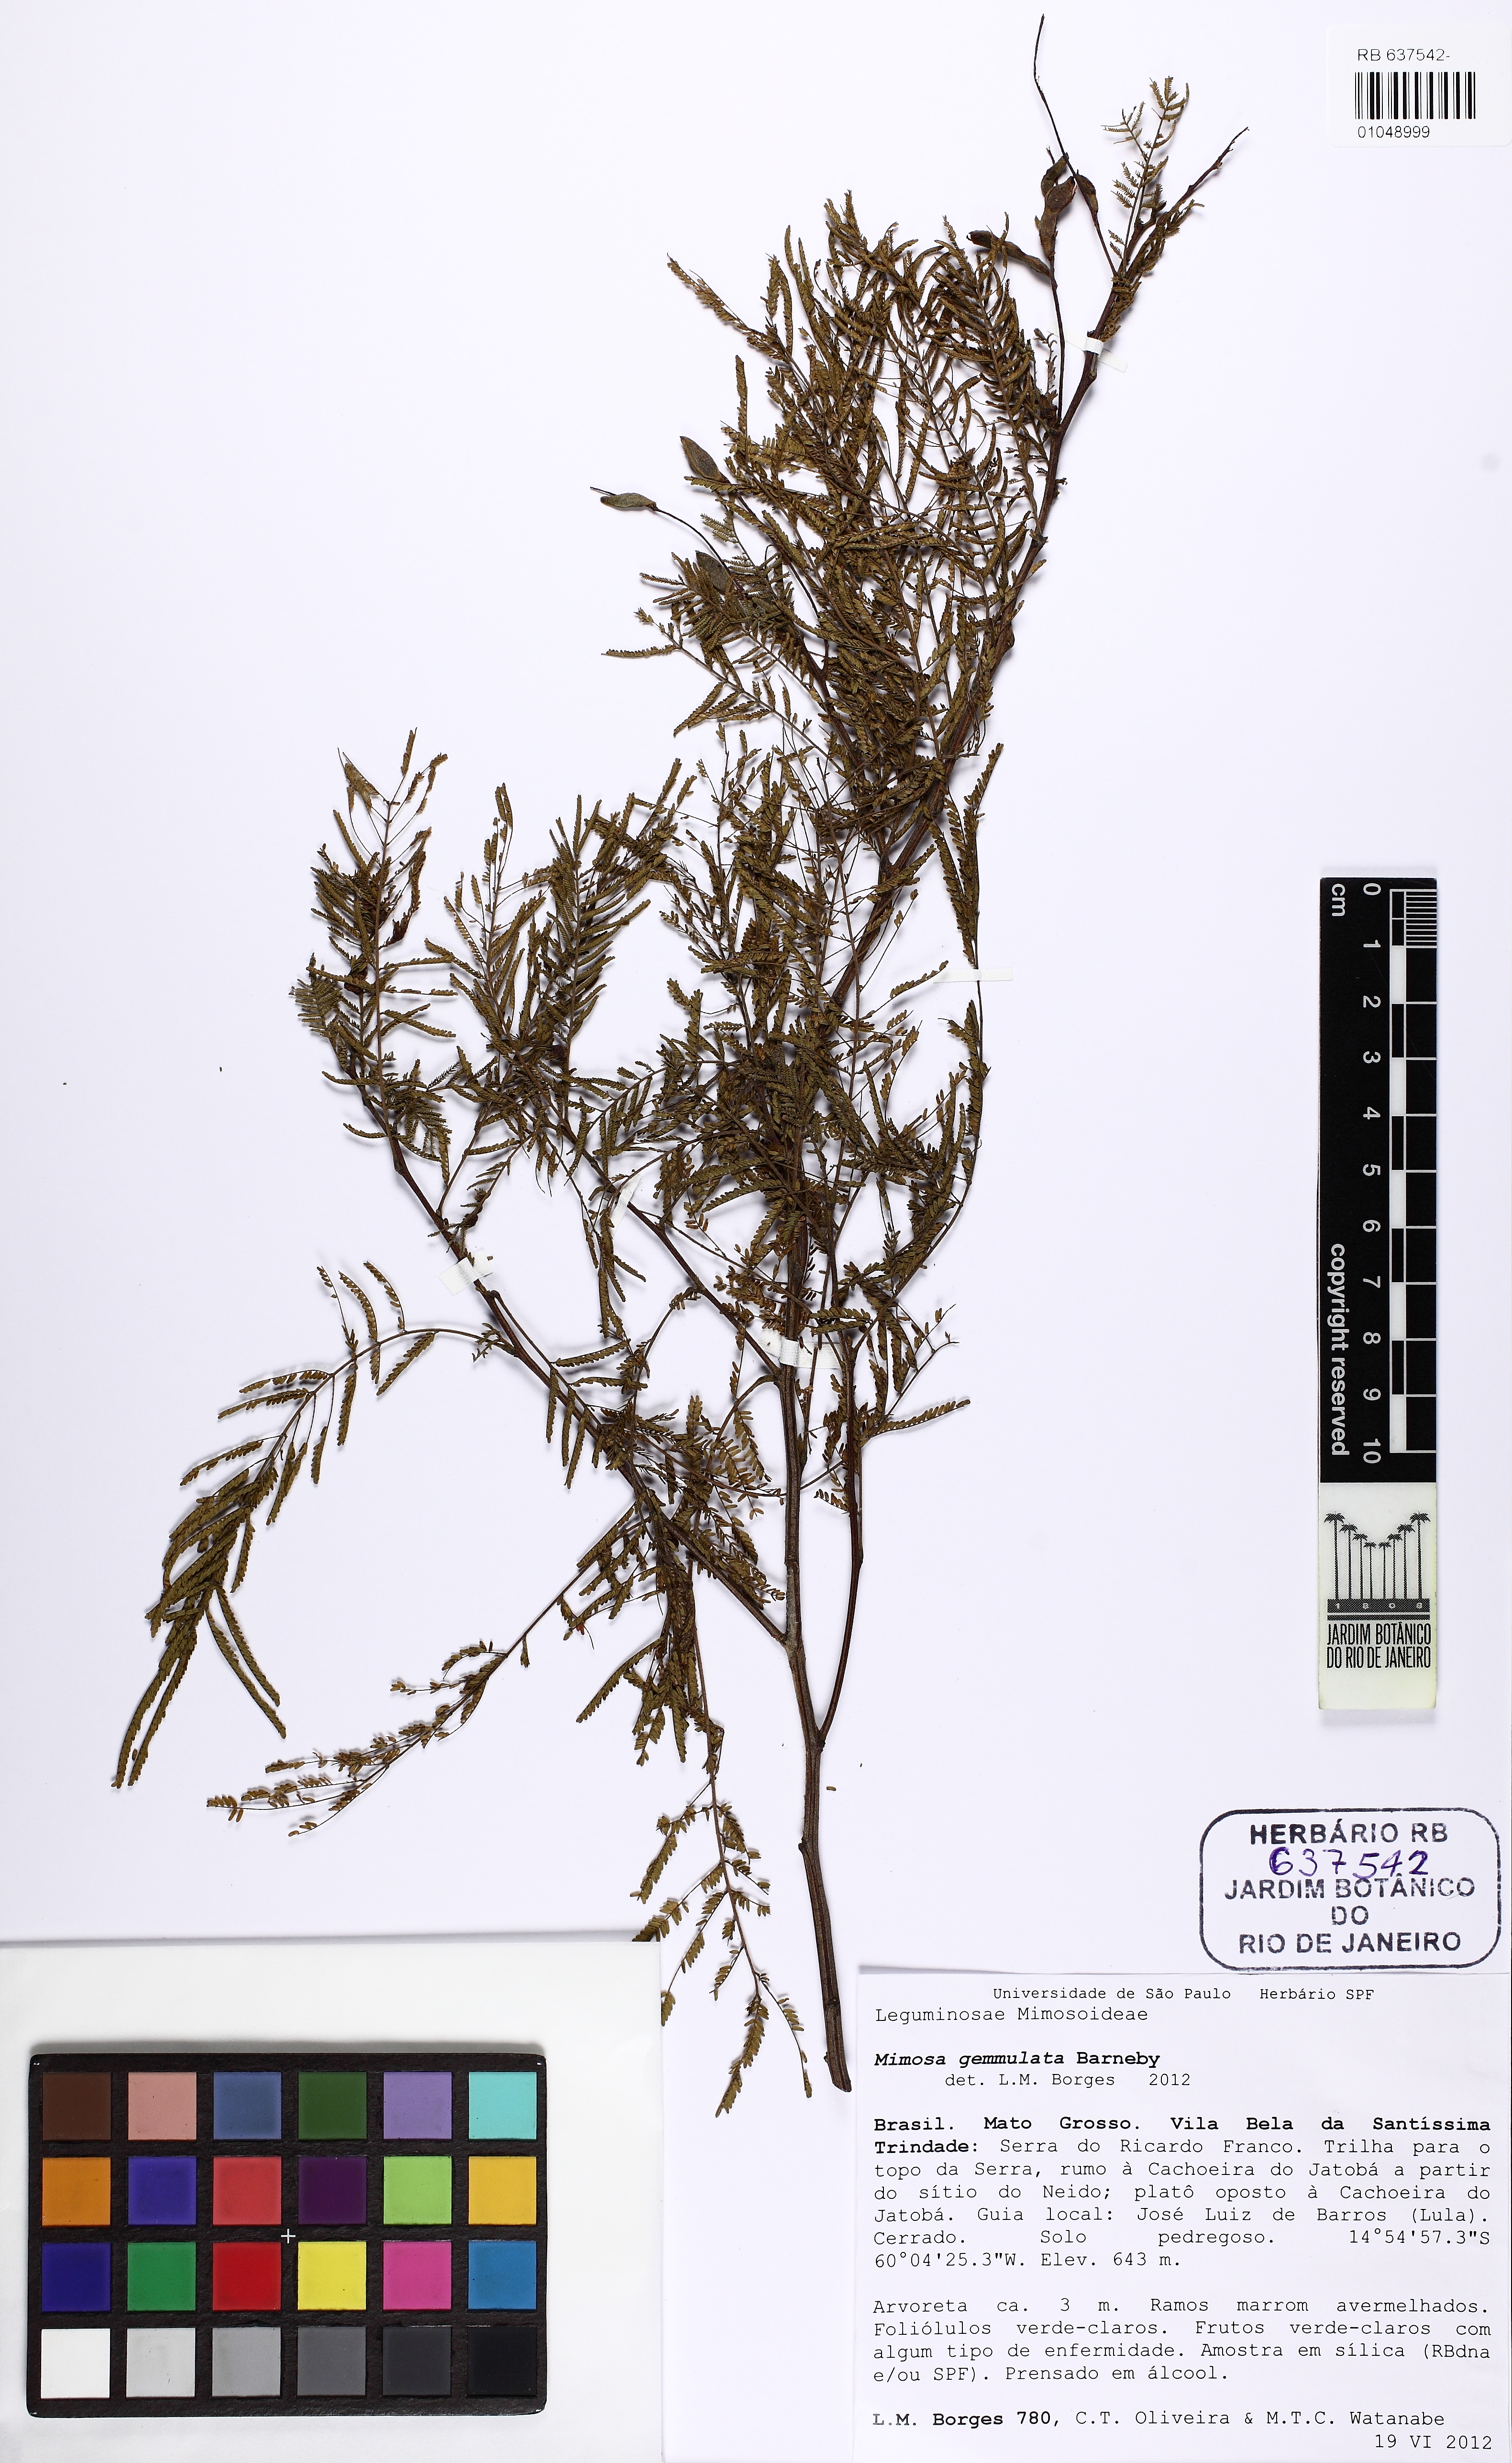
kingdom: Plantae
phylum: Tracheophyta
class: Magnoliopsida
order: Fabales
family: Fabaceae
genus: Mimosa
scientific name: Mimosa gemmulata
